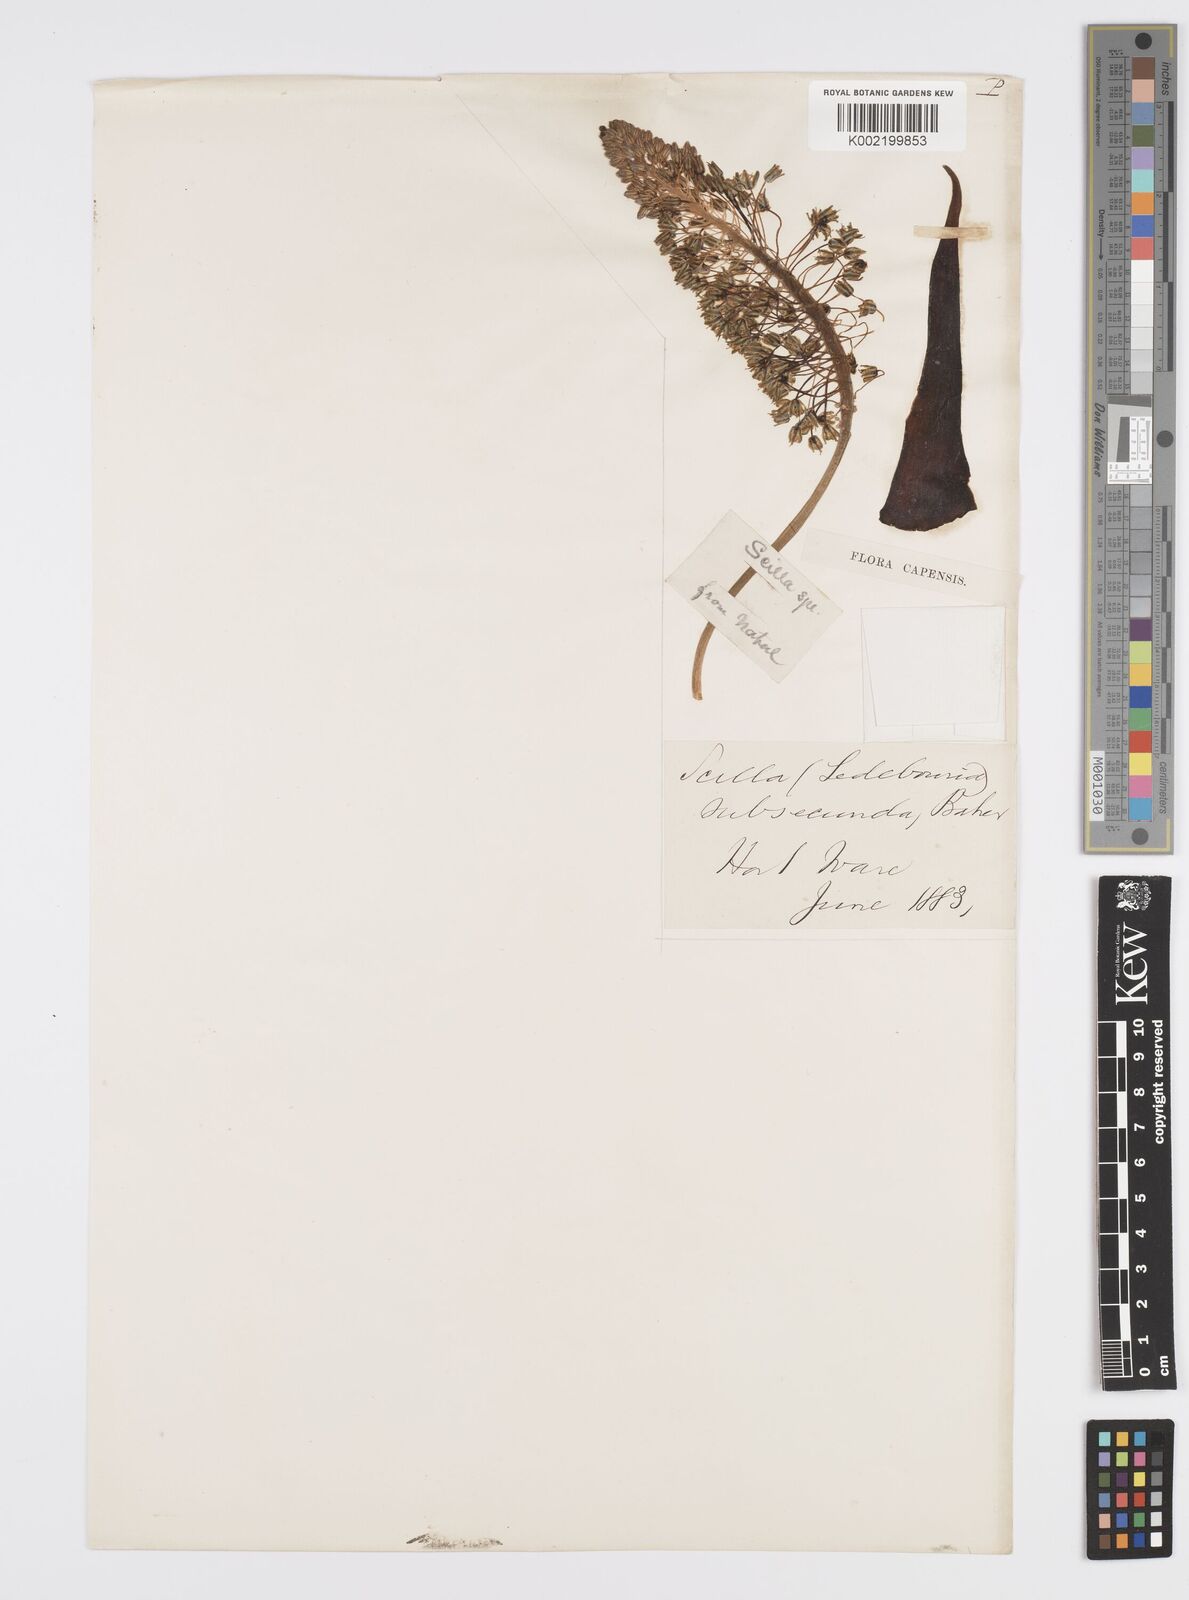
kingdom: Plantae
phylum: Tracheophyta
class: Liliopsida
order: Asparagales
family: Asparagaceae
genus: Ledebouria
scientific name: Ledebouria floribunda
